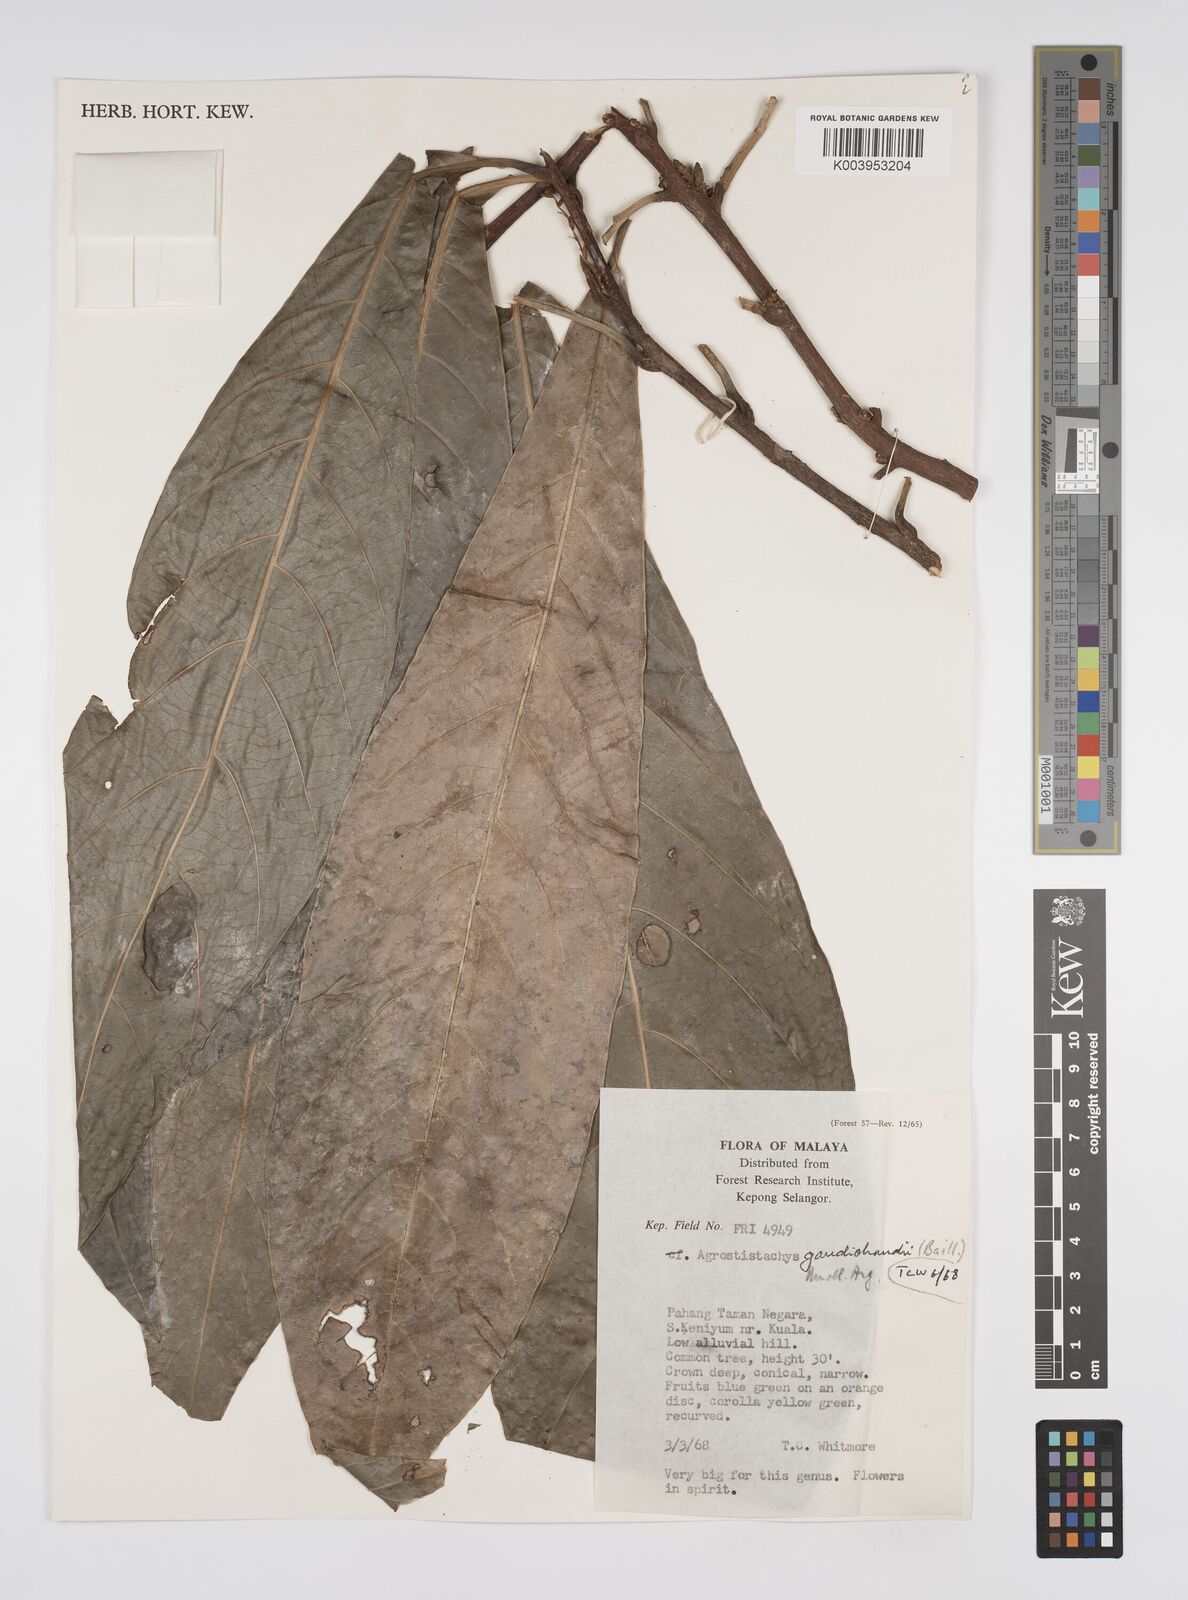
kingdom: Plantae
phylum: Tracheophyta
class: Magnoliopsida
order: Malpighiales
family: Euphorbiaceae
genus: Agrostistachys
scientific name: Agrostistachys gaudichaudii
